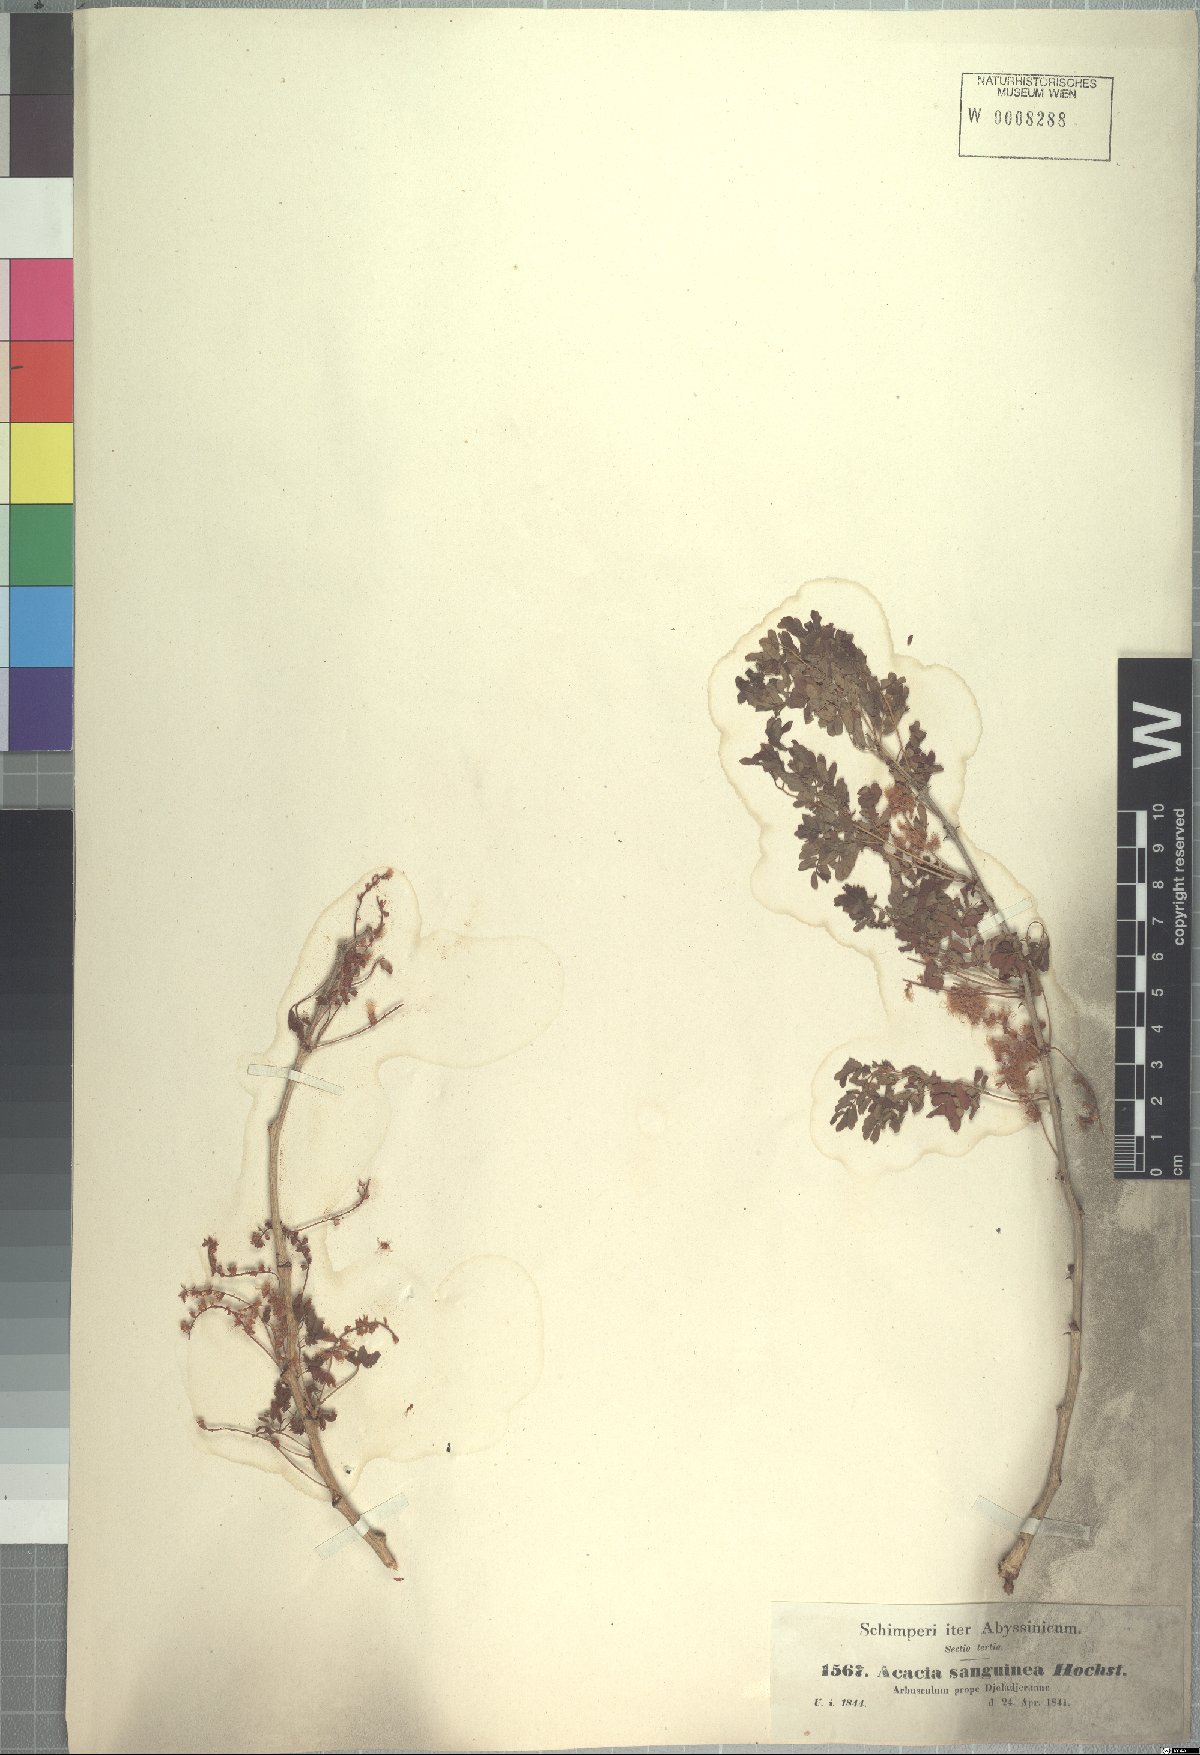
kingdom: Plantae
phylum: Tracheophyta
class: Magnoliopsida
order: Fabales
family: Fabaceae
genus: Senegalia
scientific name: Senegalia venosa
